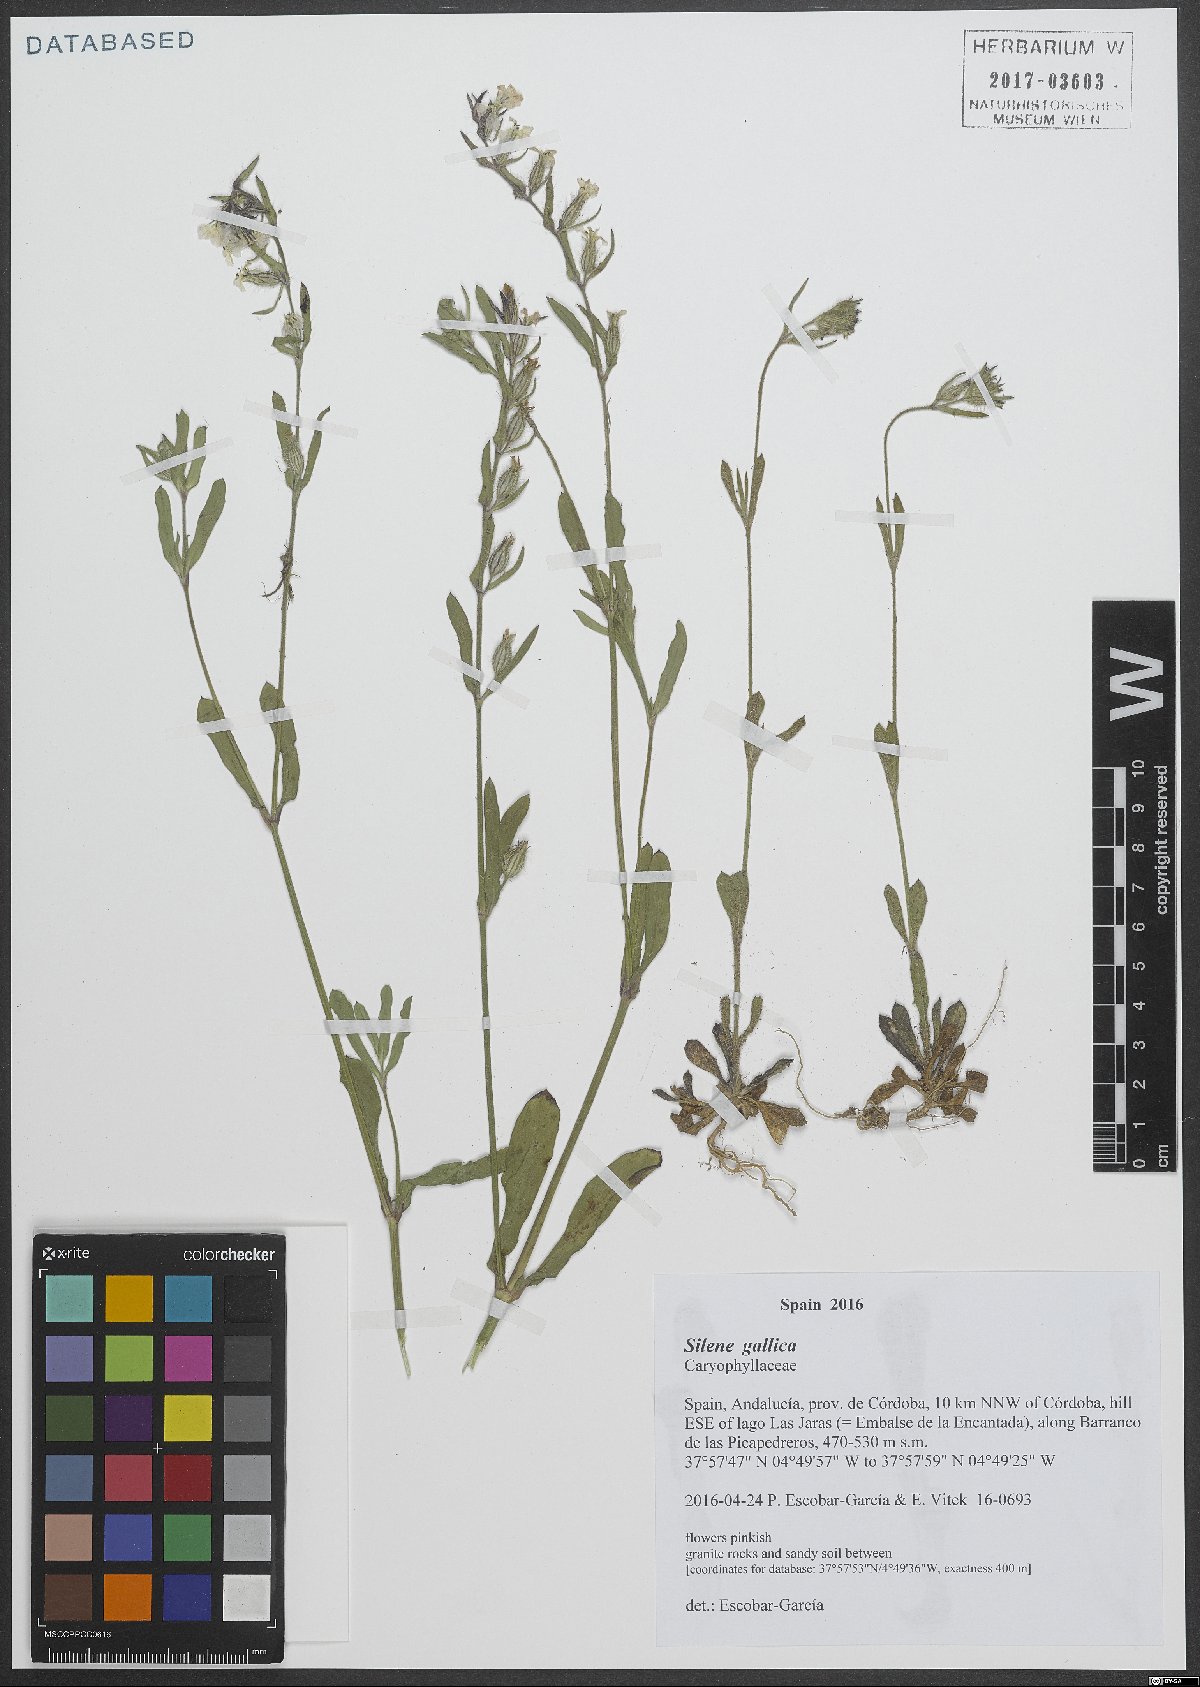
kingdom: Plantae
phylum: Tracheophyta
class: Magnoliopsida
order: Caryophyllales
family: Caryophyllaceae
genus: Silene
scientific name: Silene gallica
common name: Small-flowered catchfly
